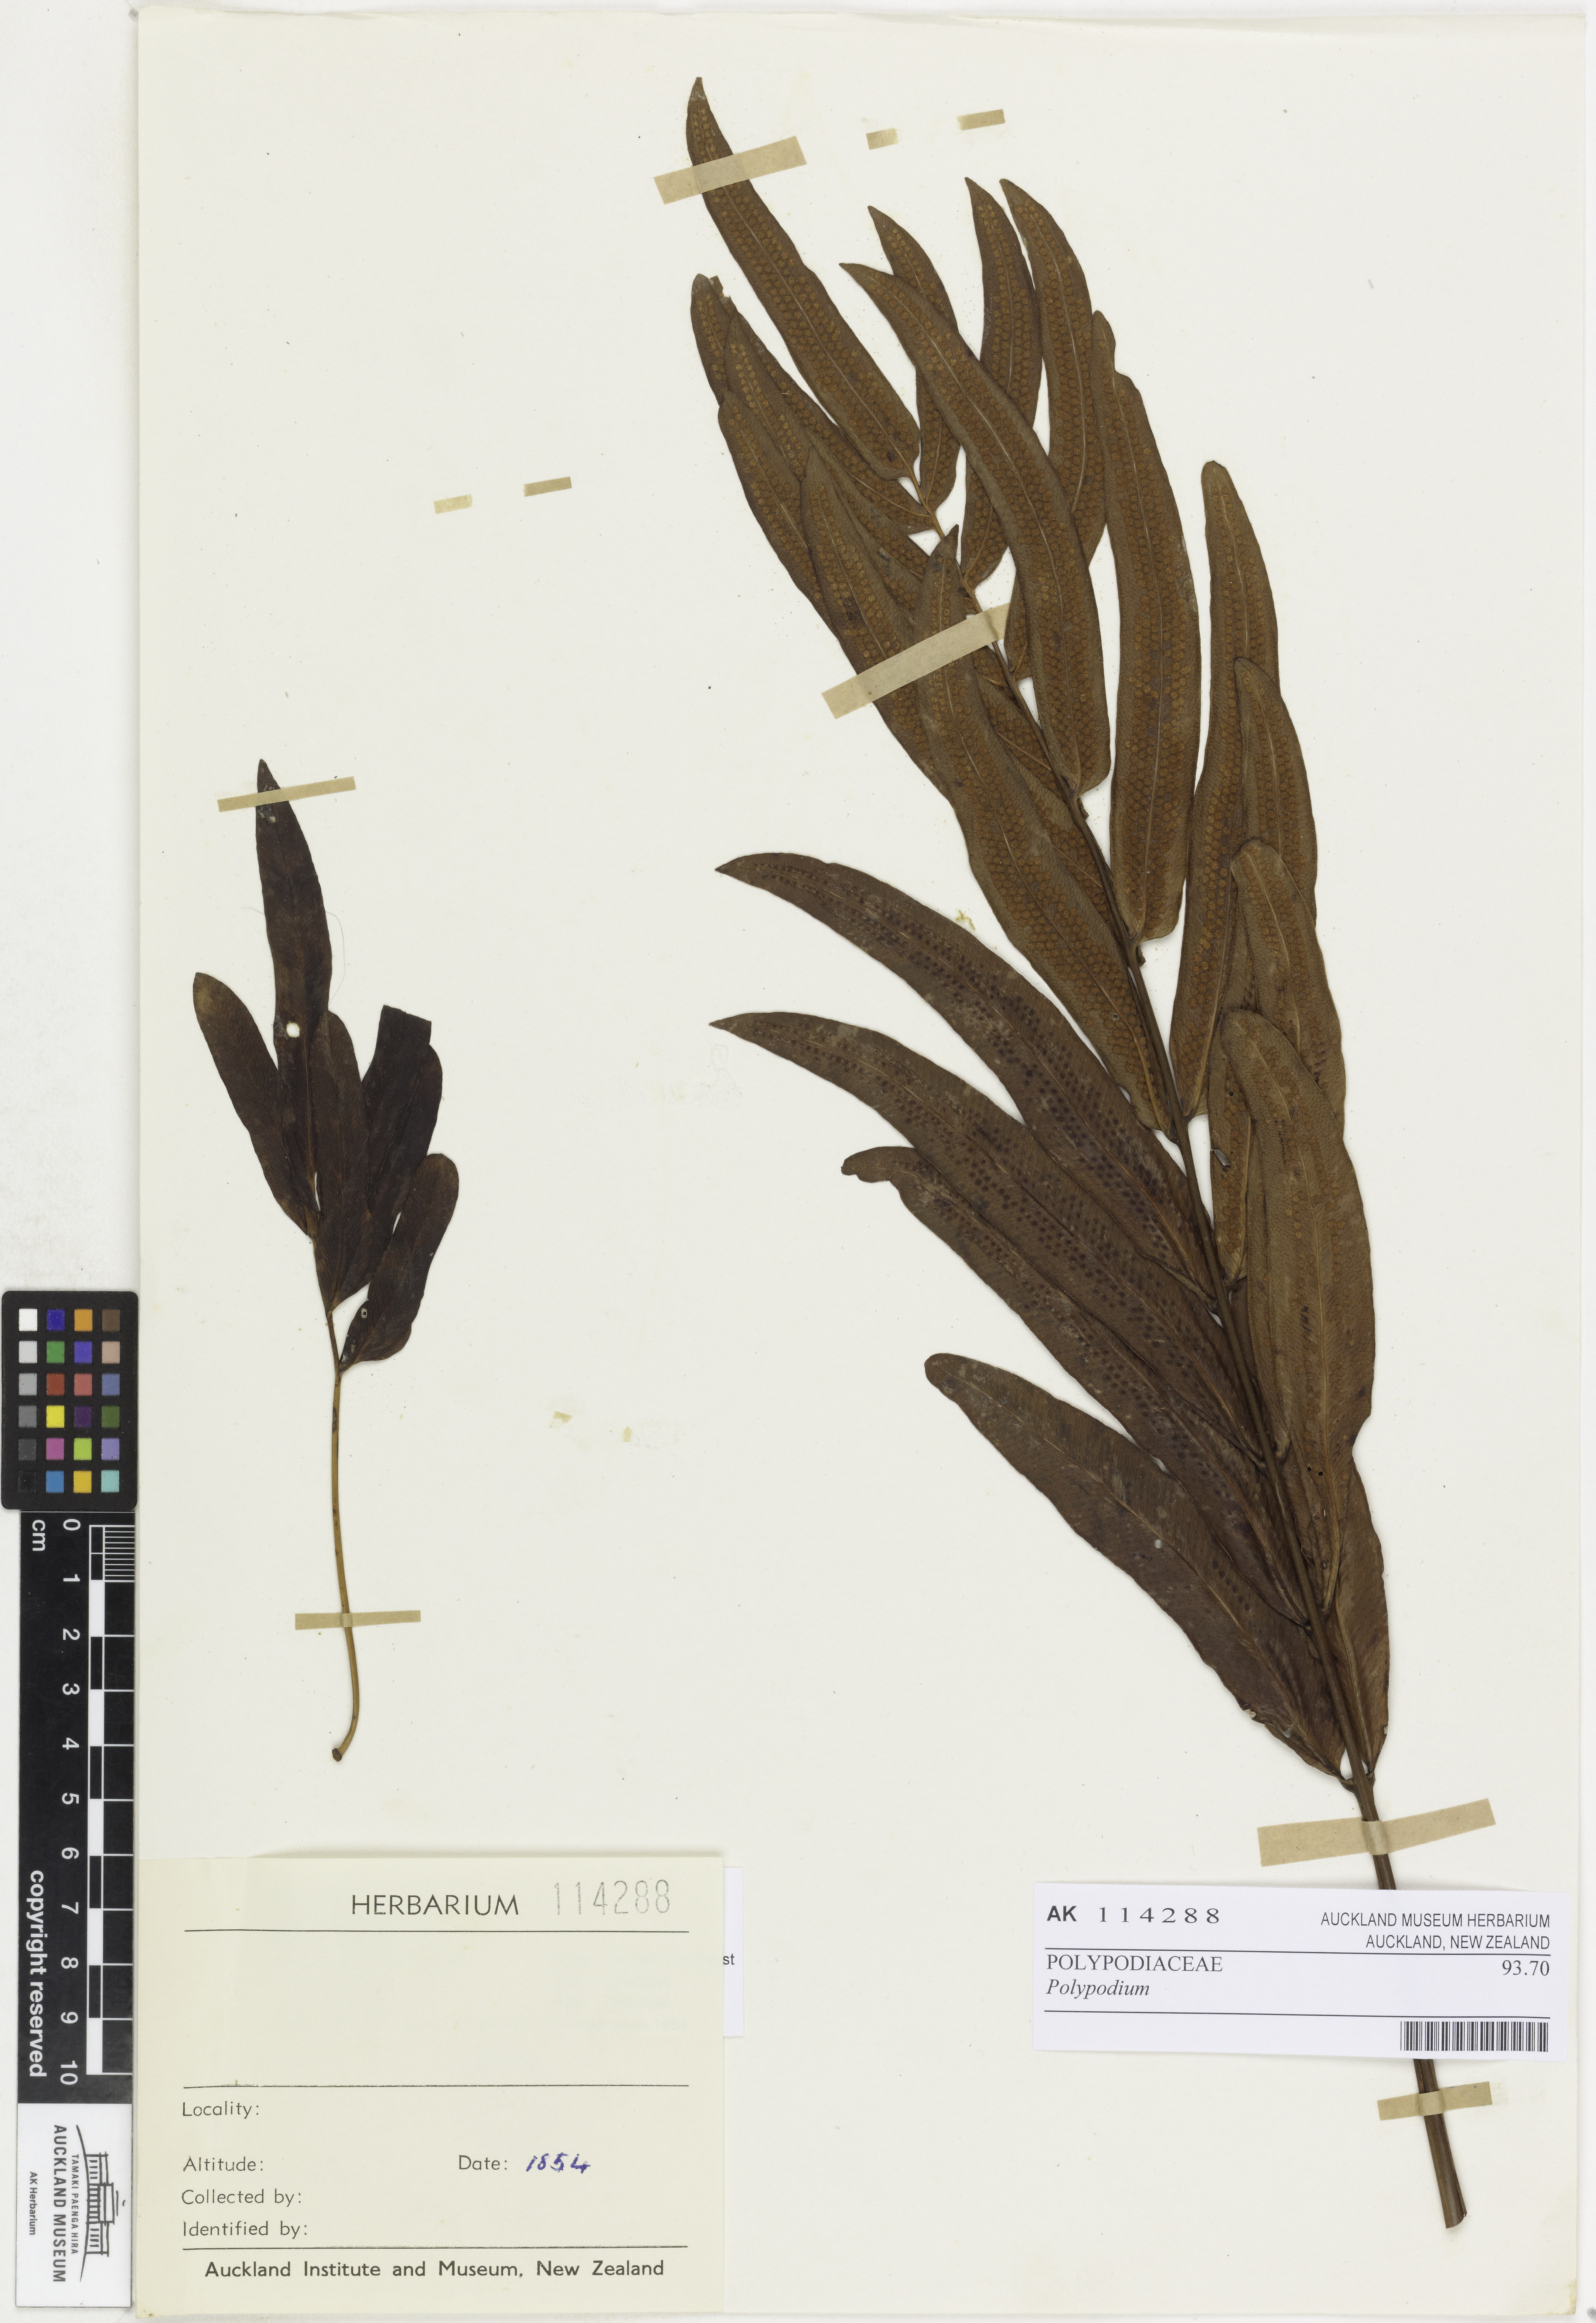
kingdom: Plantae
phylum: Tracheophyta
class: Polypodiopsida
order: Polypodiales
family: Polypodiaceae
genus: Polypodium
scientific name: Polypodium
